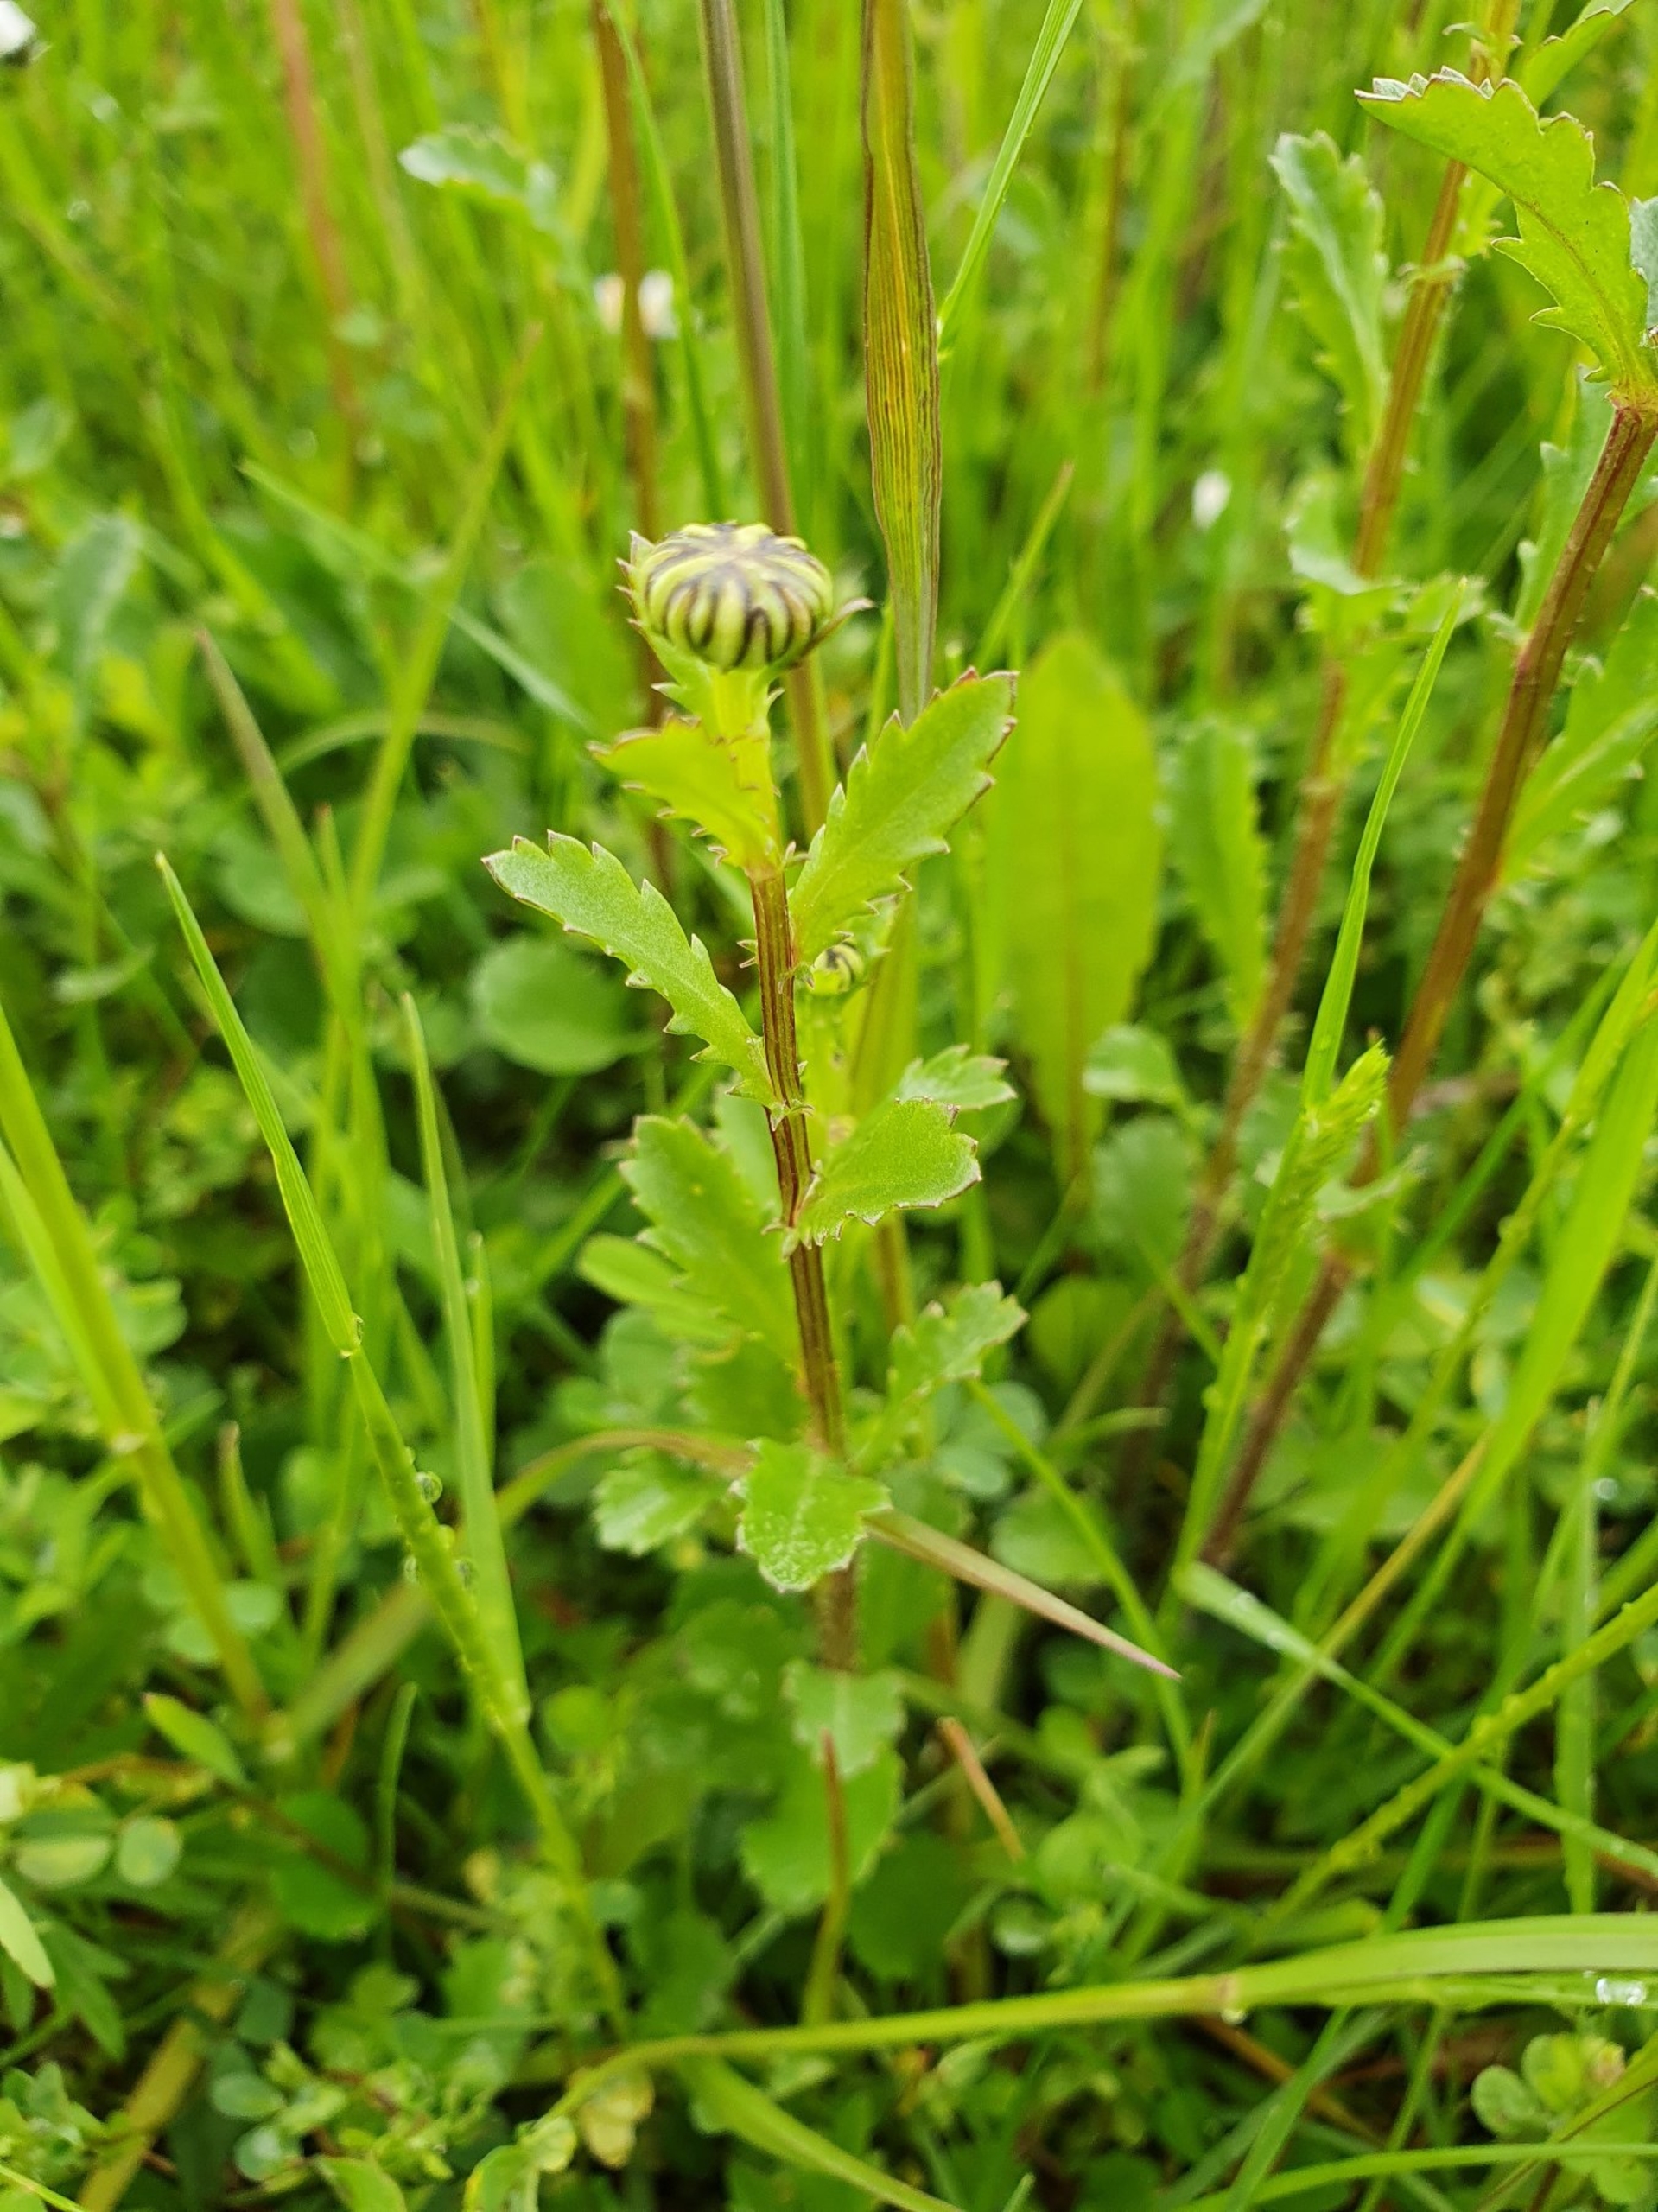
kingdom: Plantae
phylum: Tracheophyta
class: Magnoliopsida
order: Asterales
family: Asteraceae
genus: Leucanthemum
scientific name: Leucanthemum vulgare
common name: Hvid okseøje
